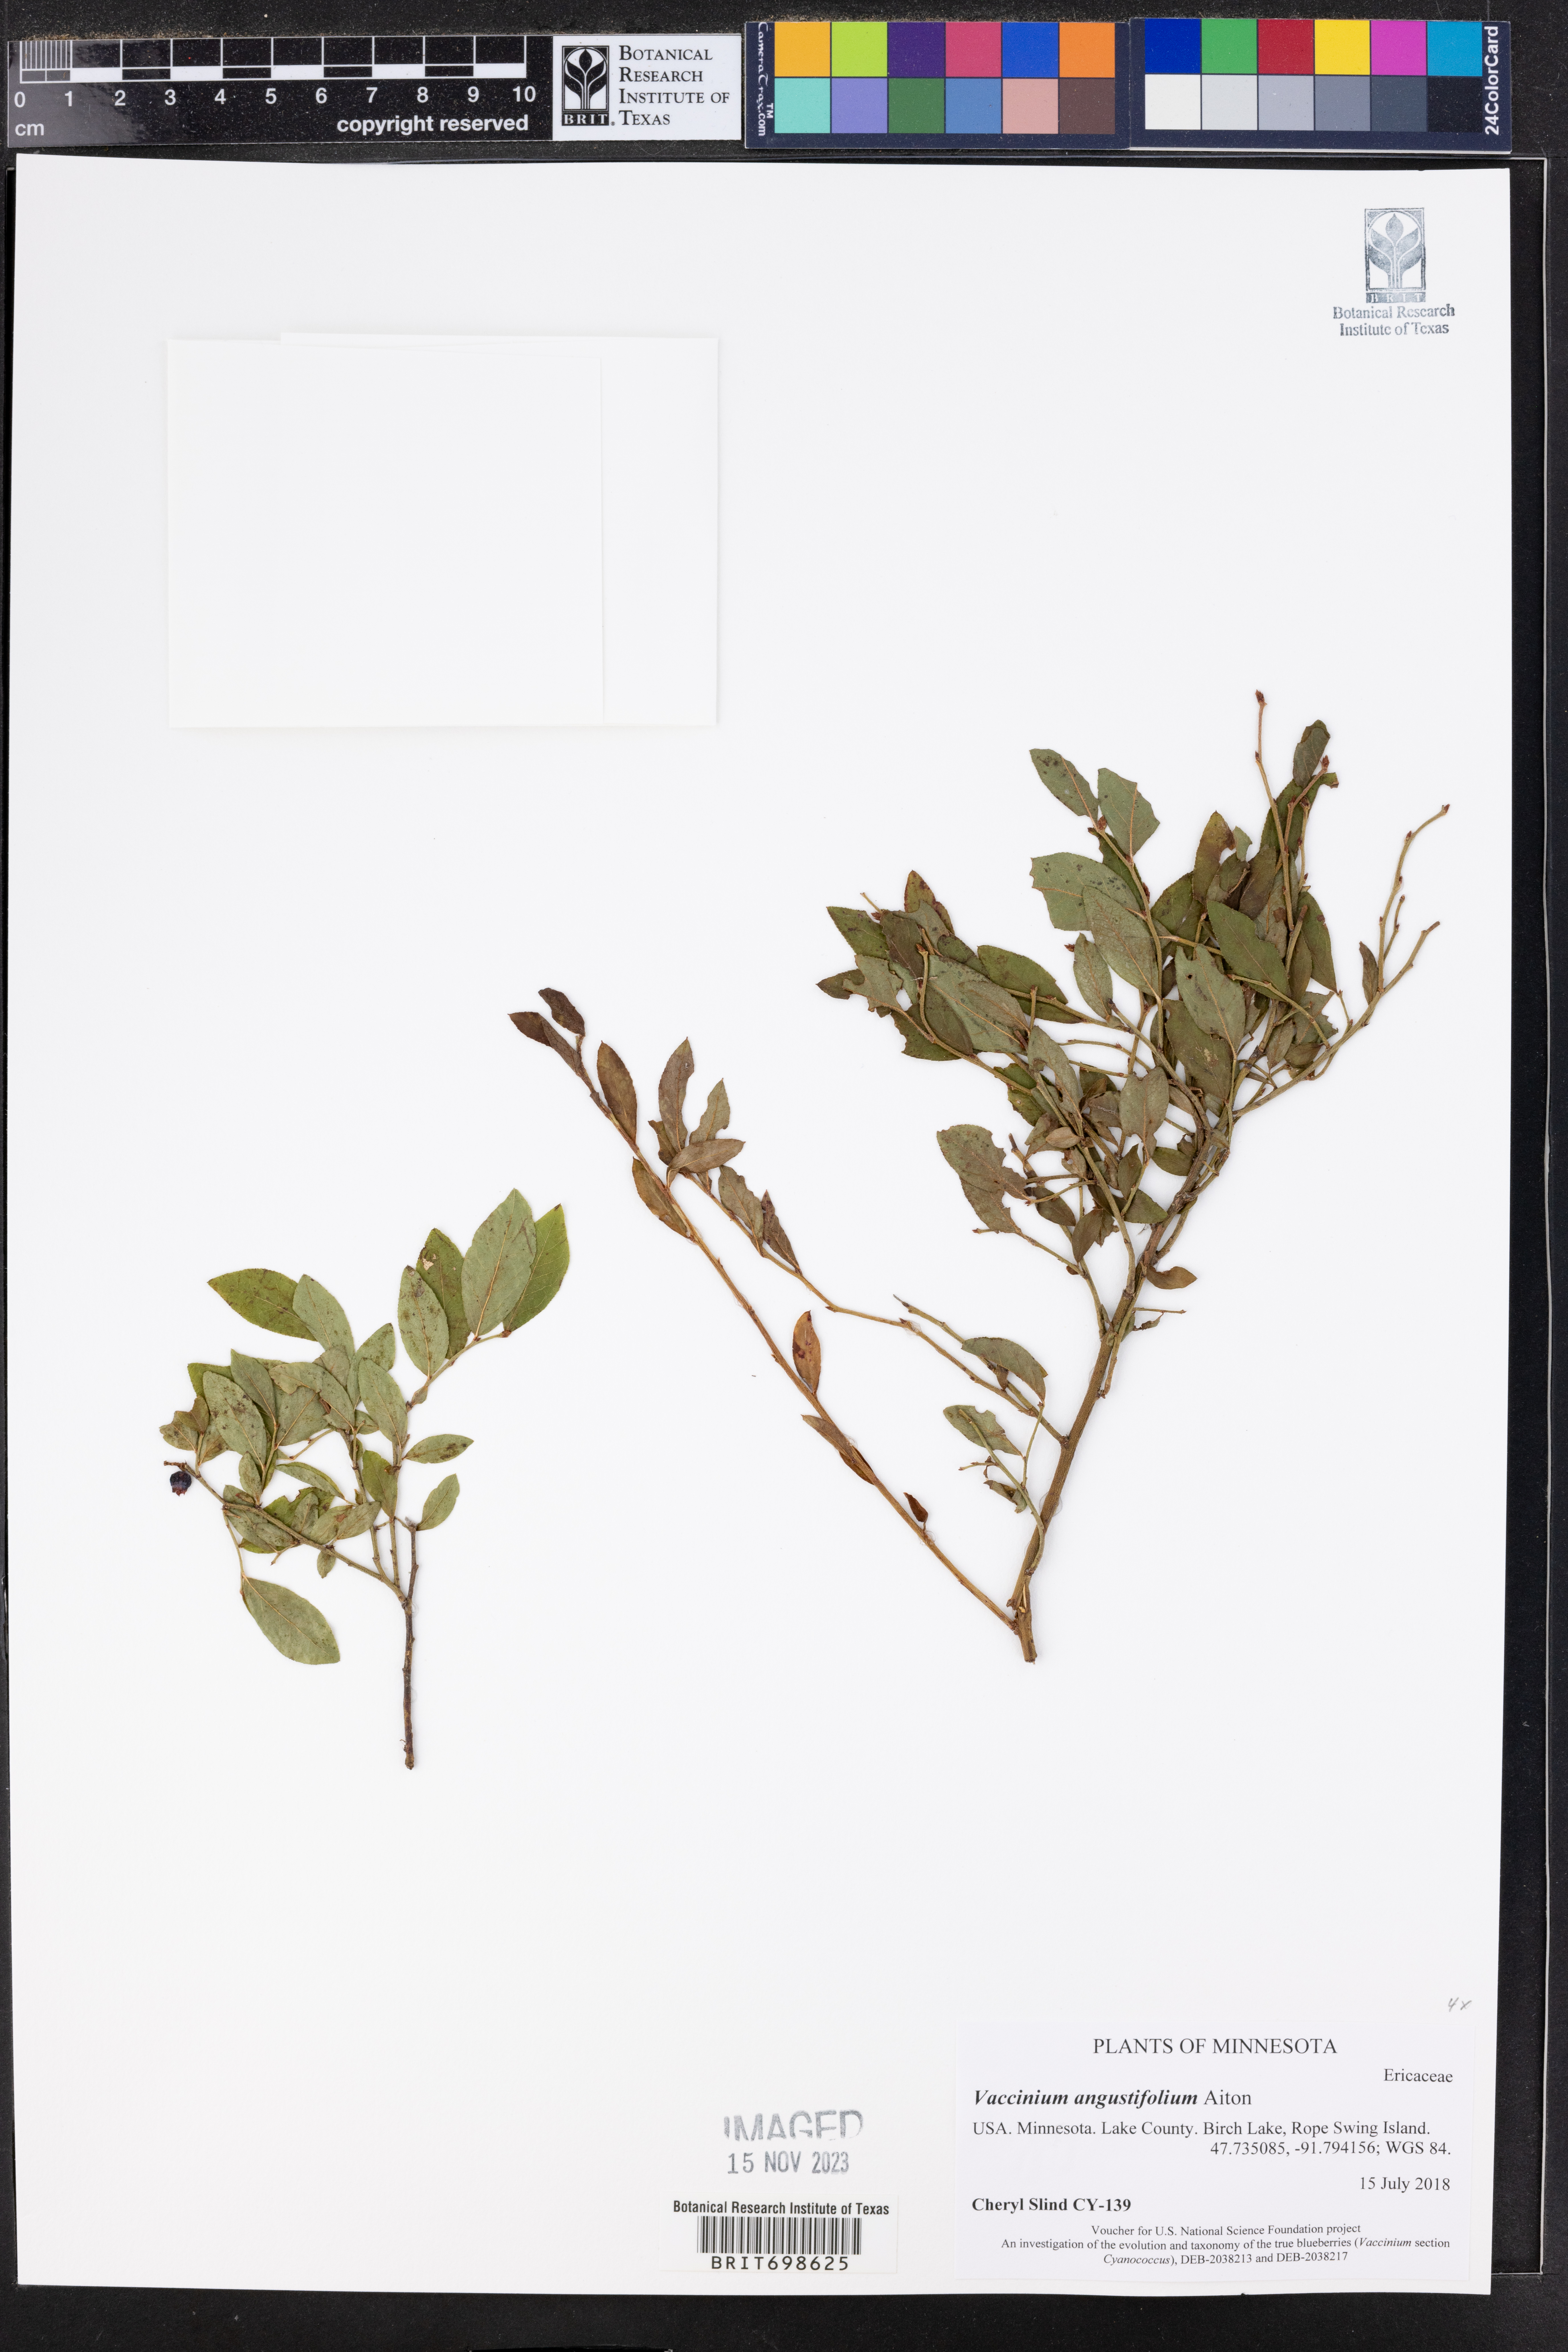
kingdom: Plantae
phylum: Tracheophyta
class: Magnoliopsida
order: Ericales
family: Ericaceae
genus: Vaccinium
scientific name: Vaccinium angustifolium
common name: Early lowbush blueberry
